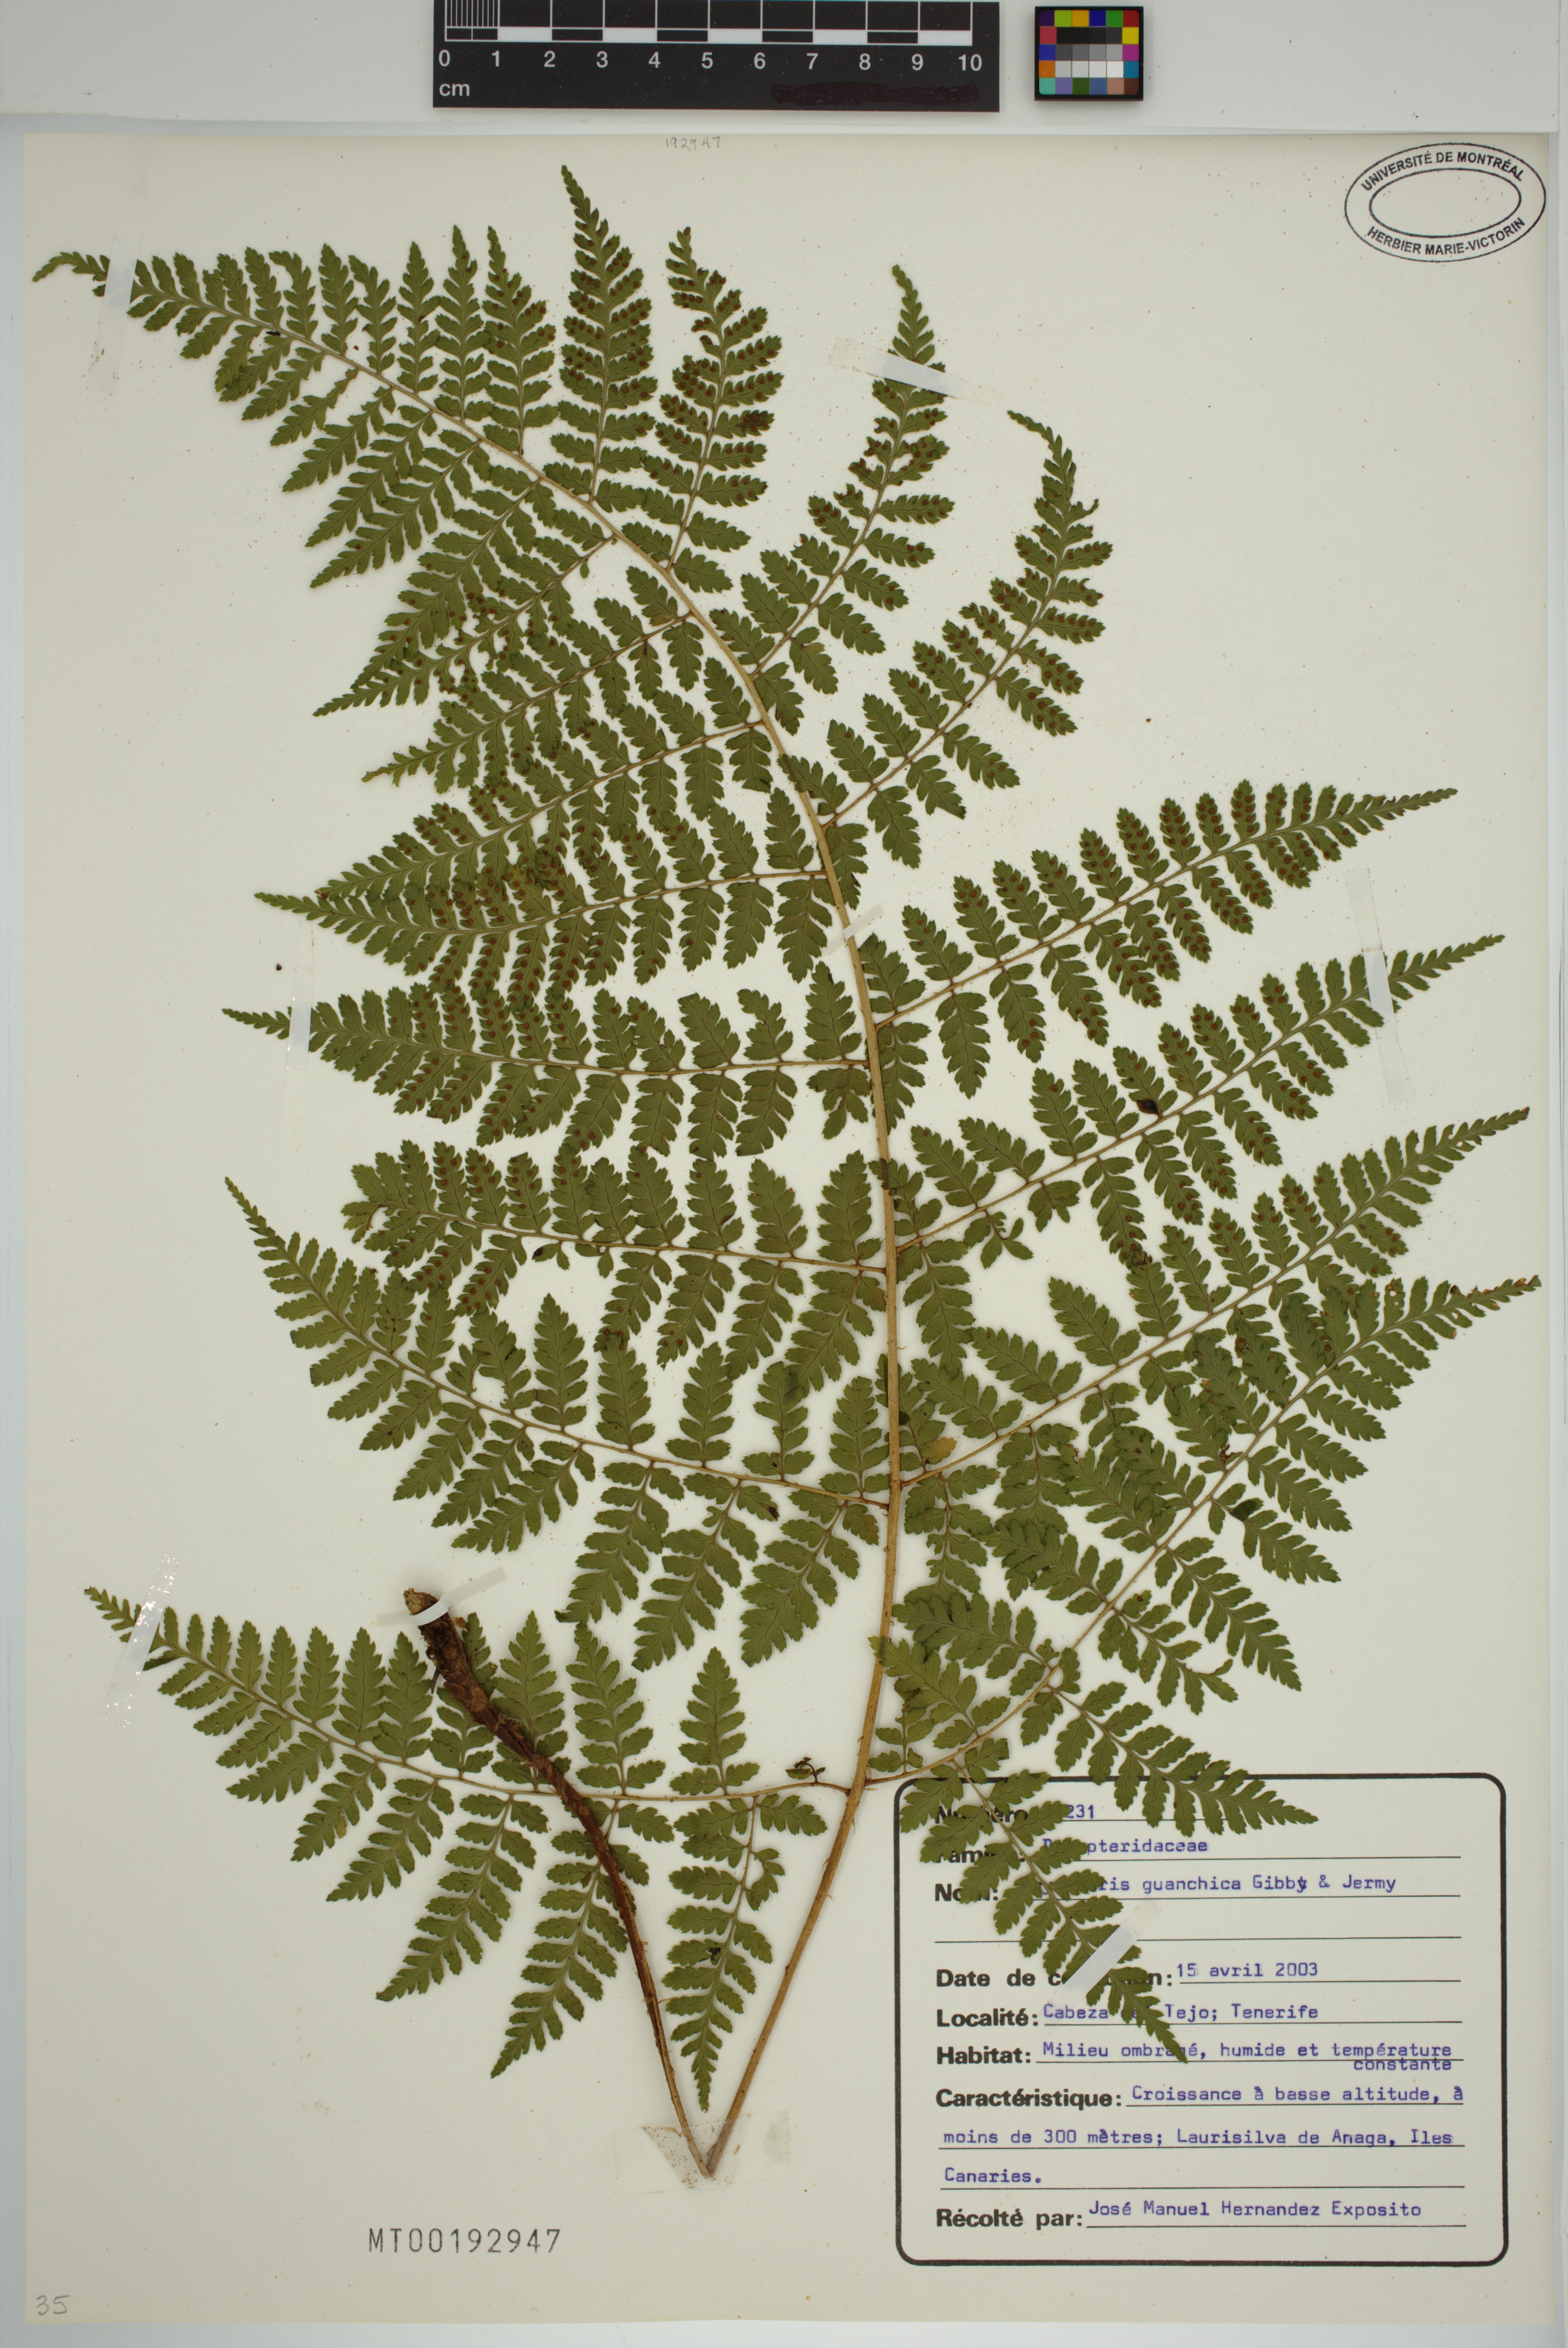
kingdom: Plantae
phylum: Tracheophyta
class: Polypodiopsida
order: Polypodiales
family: Dryopteridaceae
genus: Dryopteris
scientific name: Dryopteris guanchica
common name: Guanche woodfern
